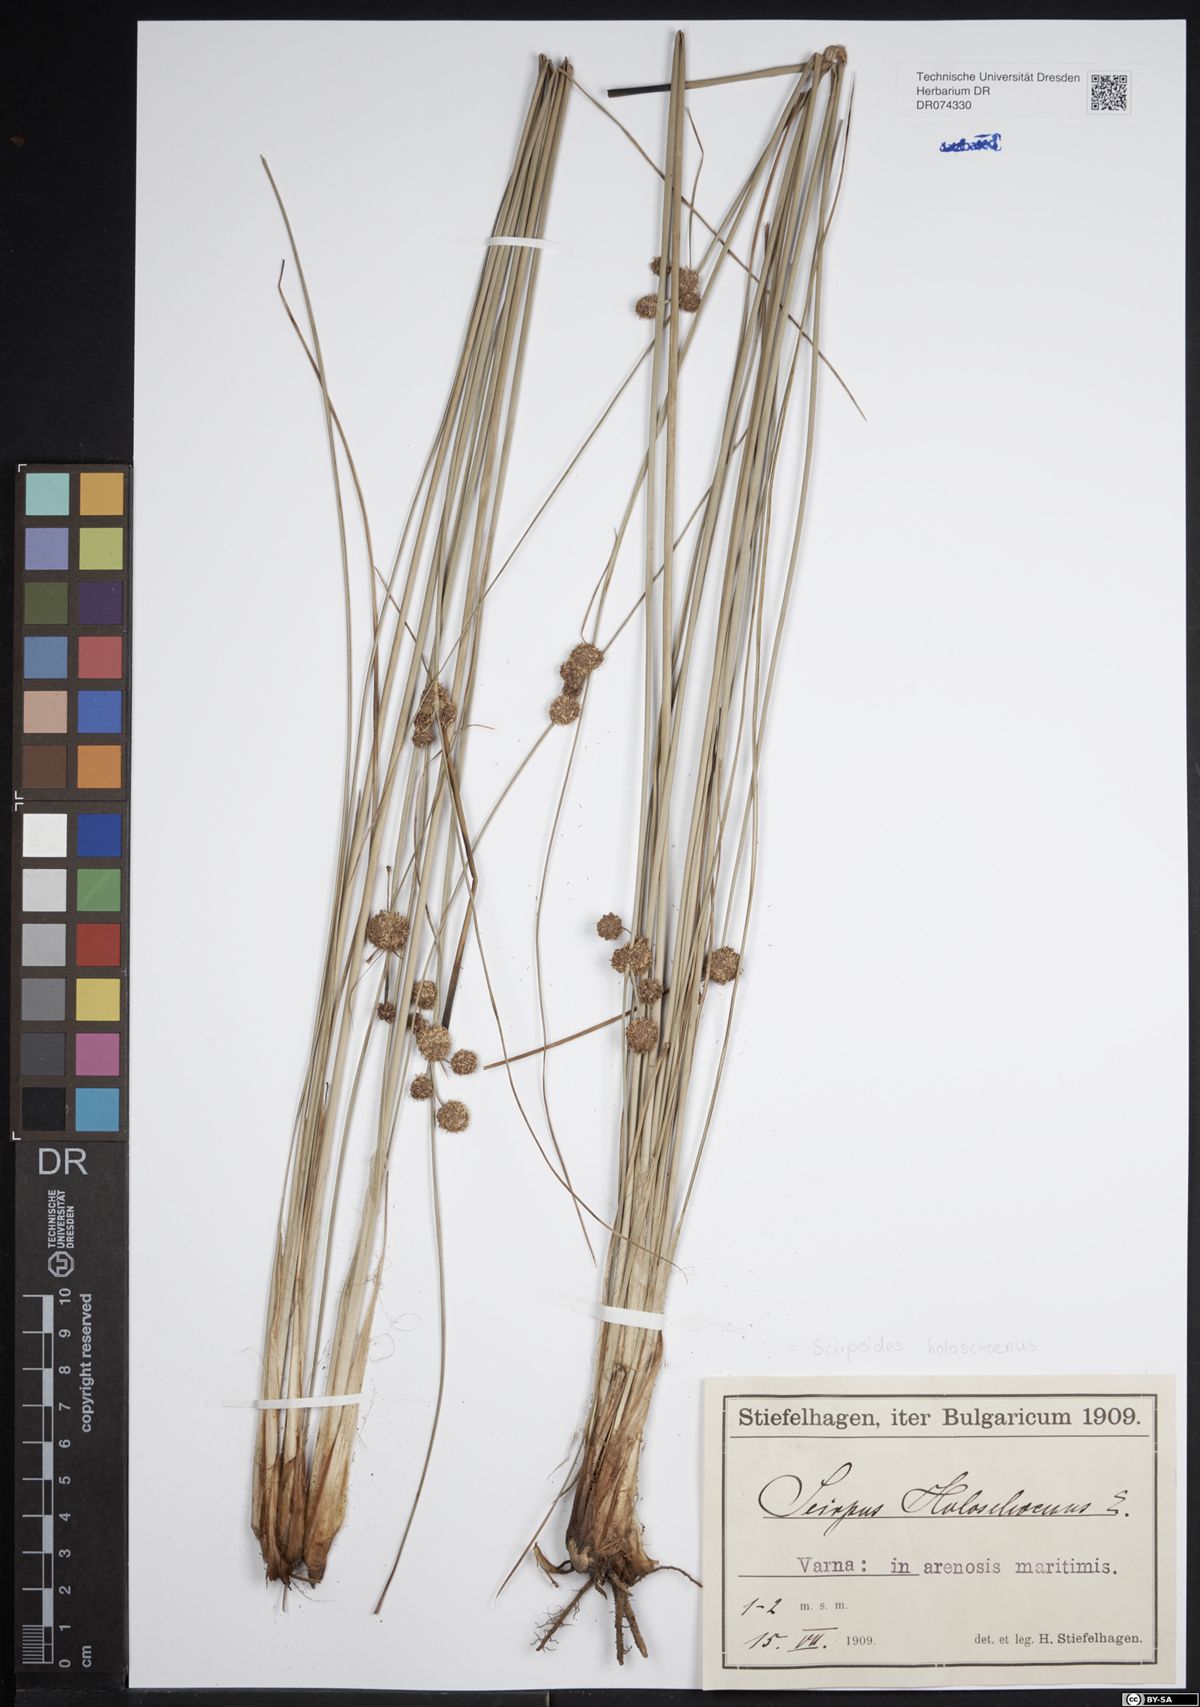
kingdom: Plantae
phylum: Tracheophyta
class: Liliopsida
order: Poales
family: Cyperaceae
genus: Scirpoides
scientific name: Scirpoides holoschoenus
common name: Round-headed club-rush
